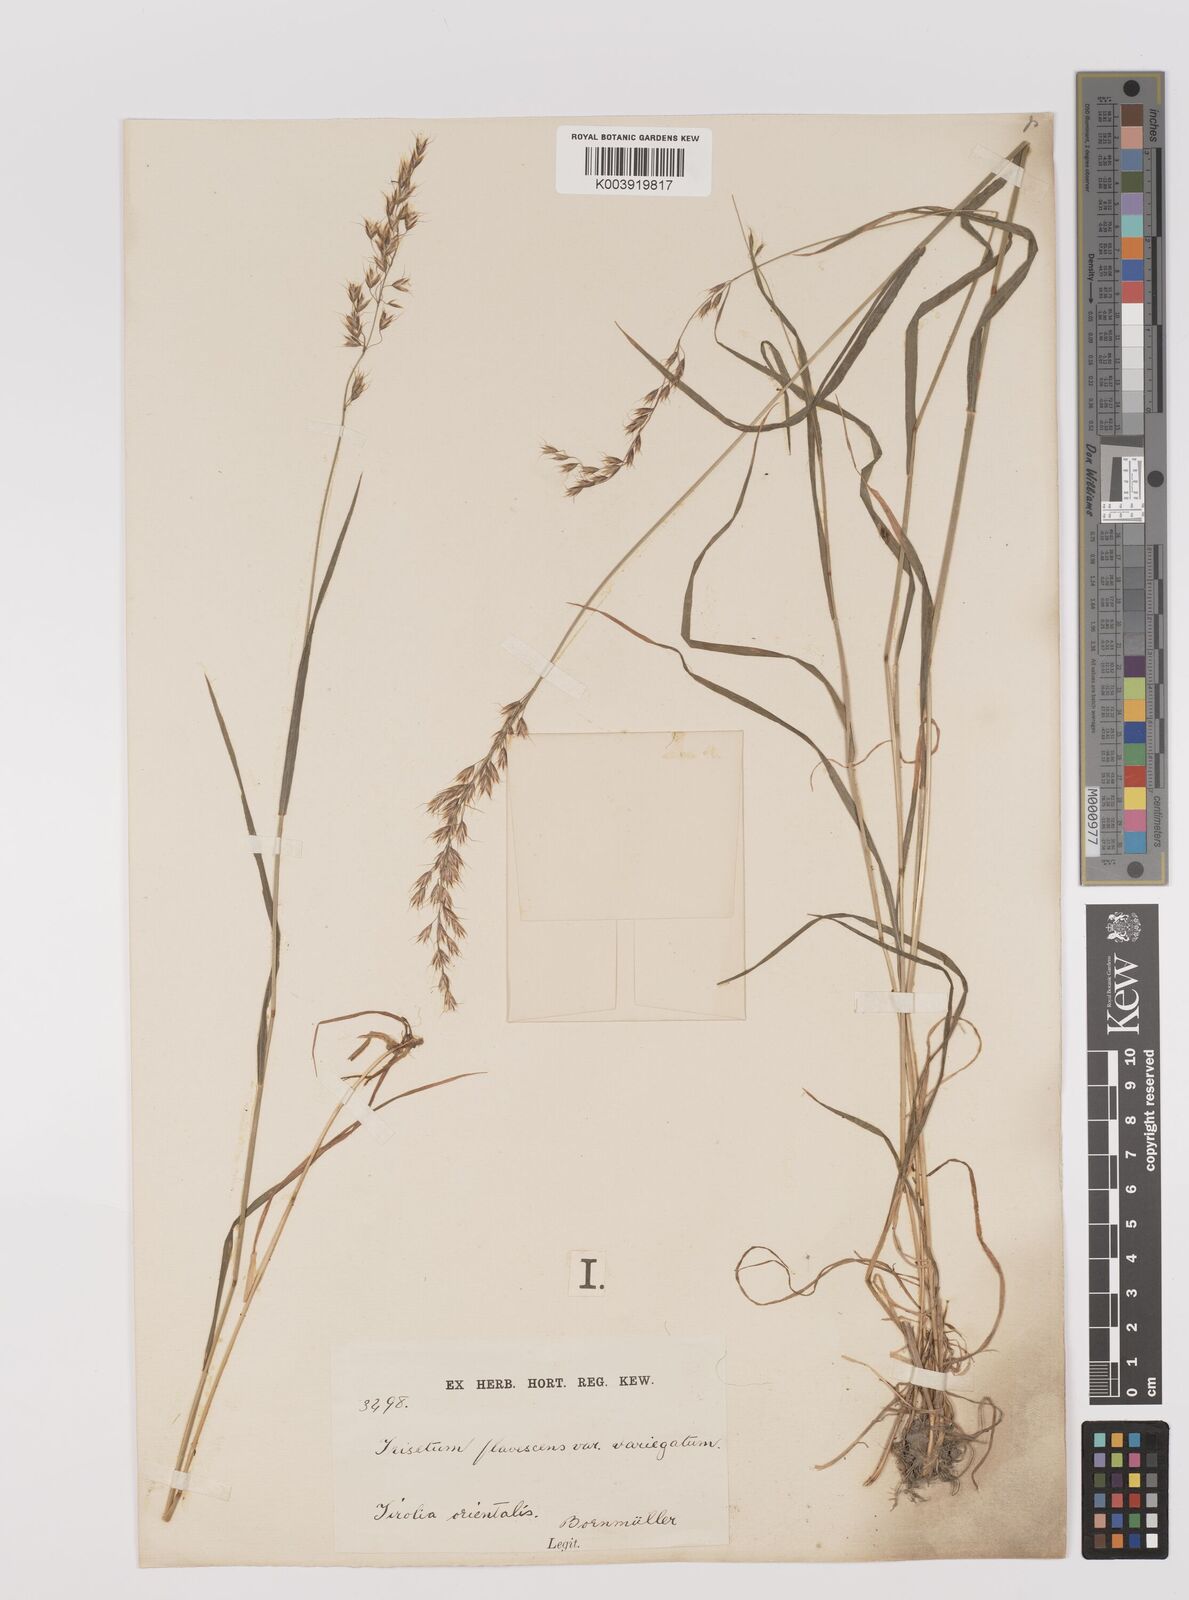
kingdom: Plantae
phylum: Tracheophyta
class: Liliopsida
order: Poales
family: Poaceae
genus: Trisetum
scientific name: Trisetum flavescens
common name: Yellow oat-grass
